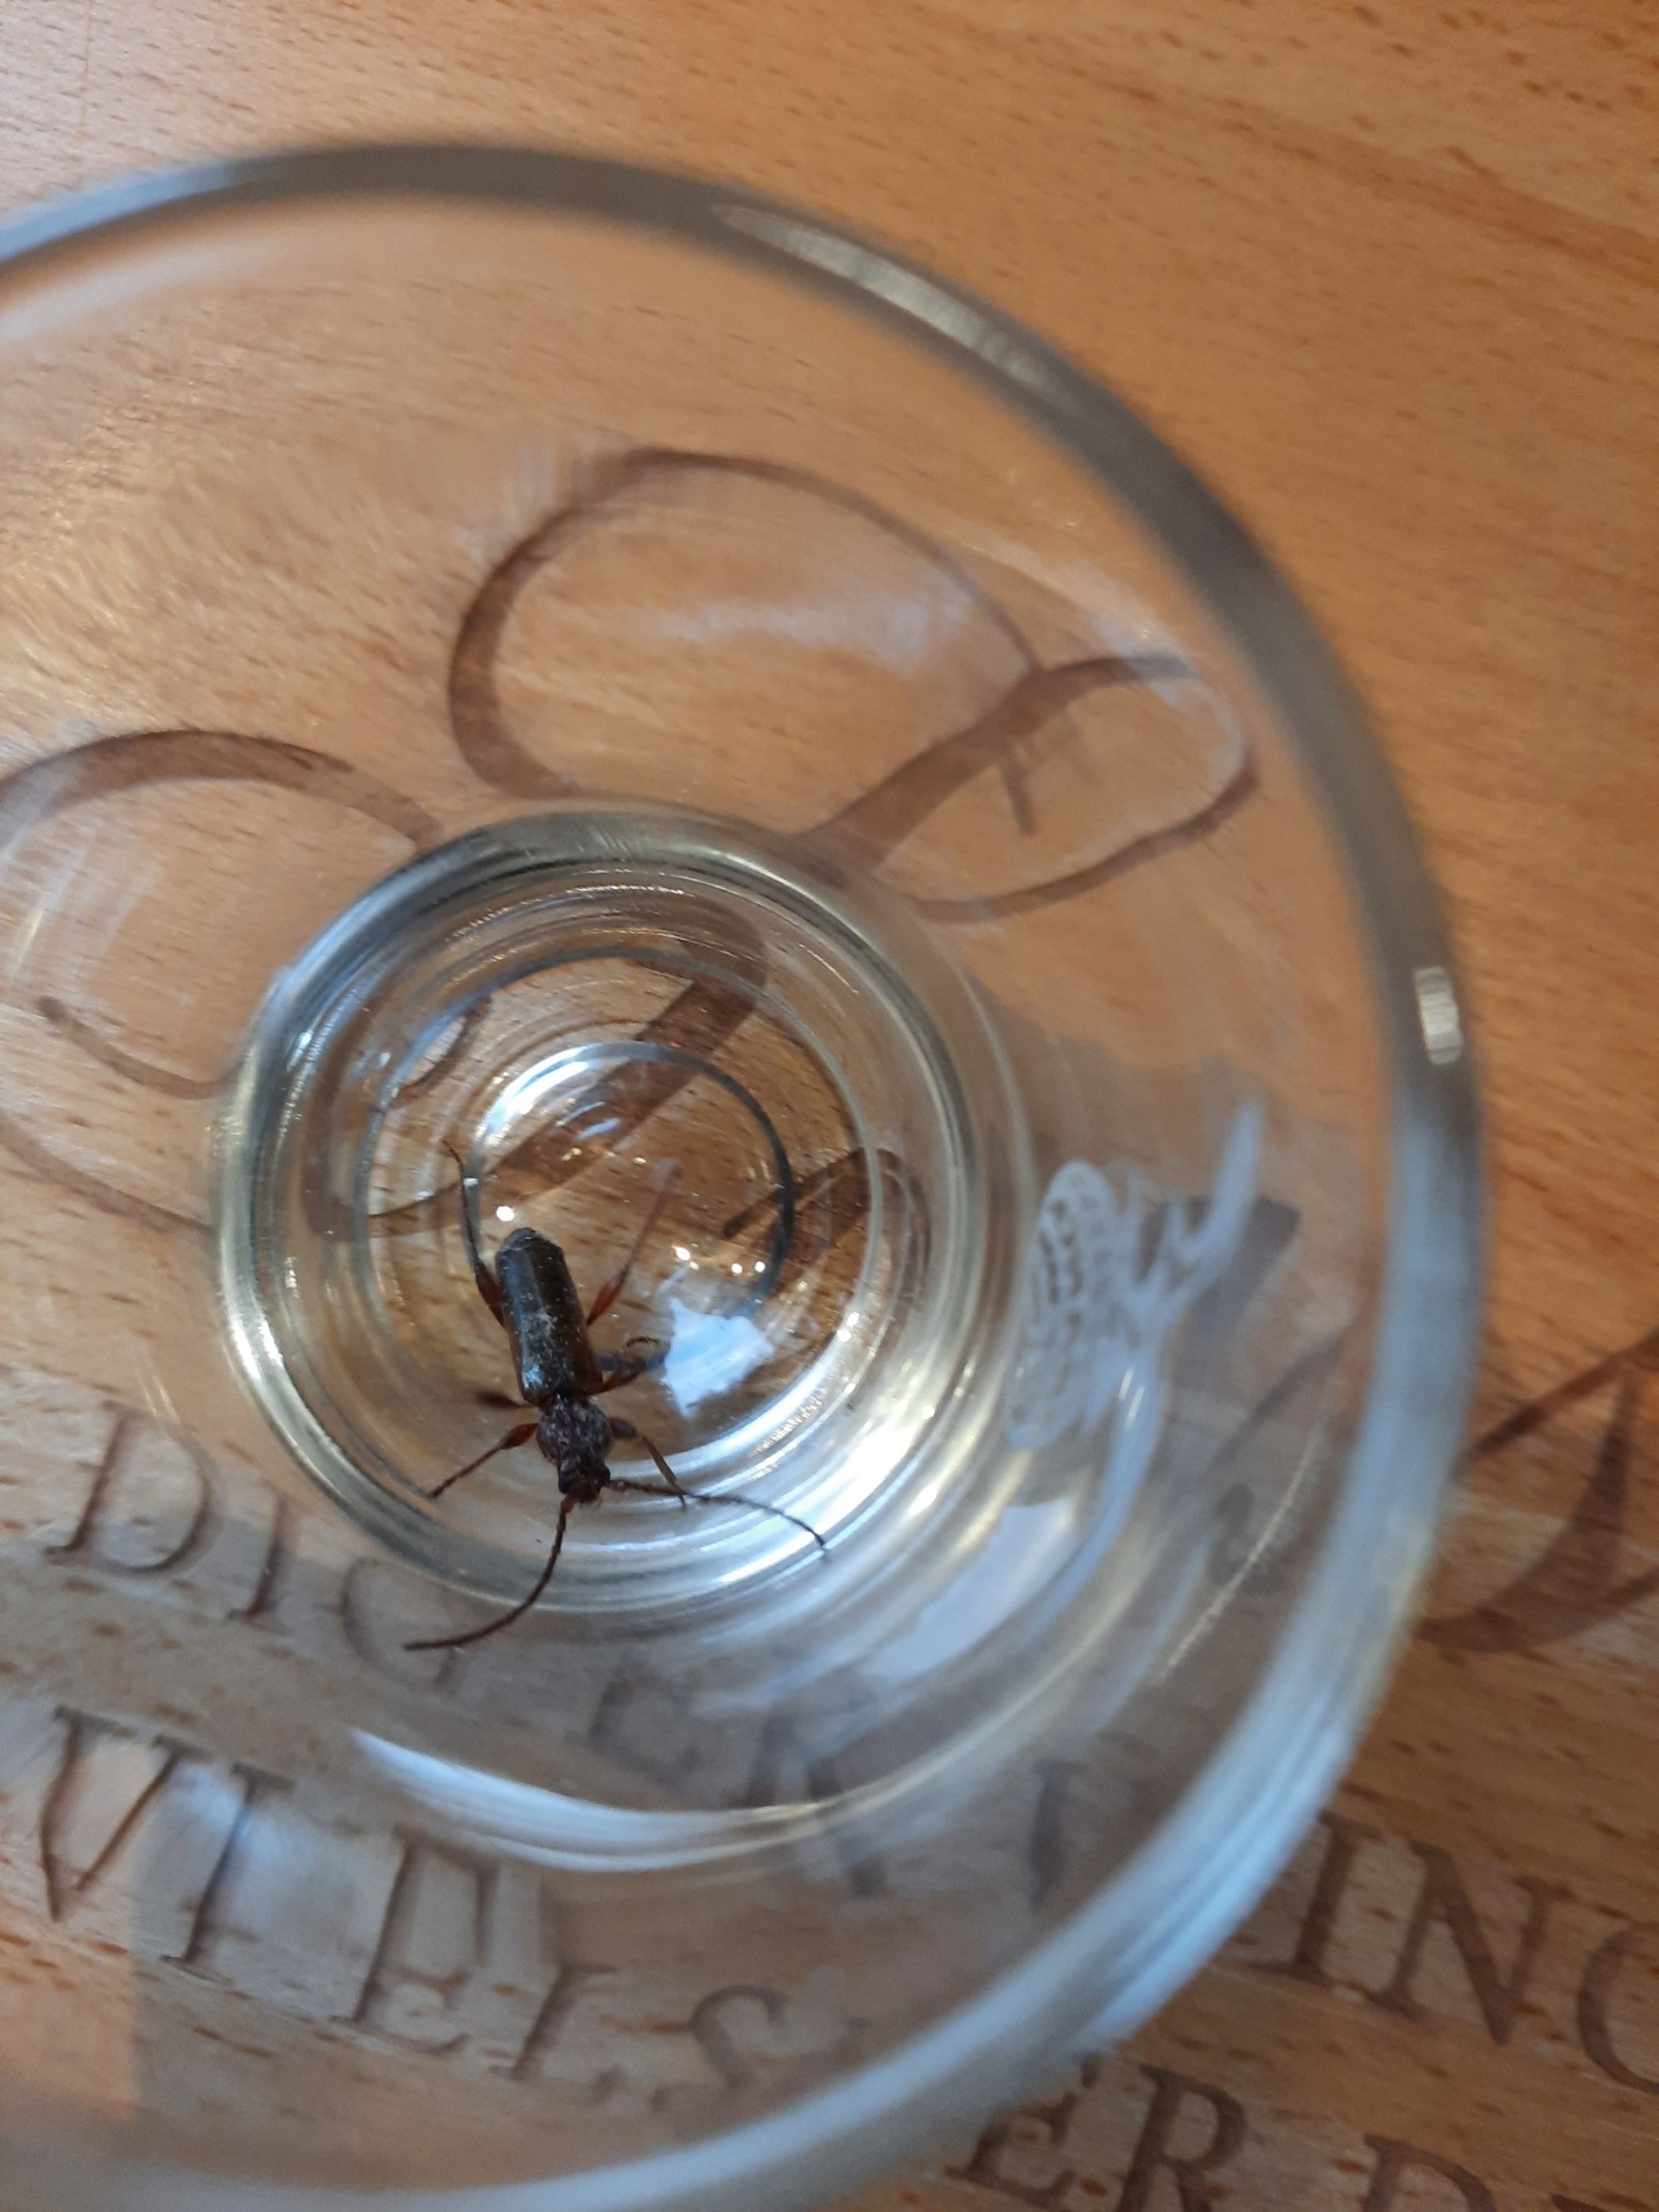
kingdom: Animalia
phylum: Arthropoda
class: Insecta
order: Coleoptera
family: Cerambycidae
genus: Phymatodes
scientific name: Phymatodes testaceus
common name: Bøgebuk
